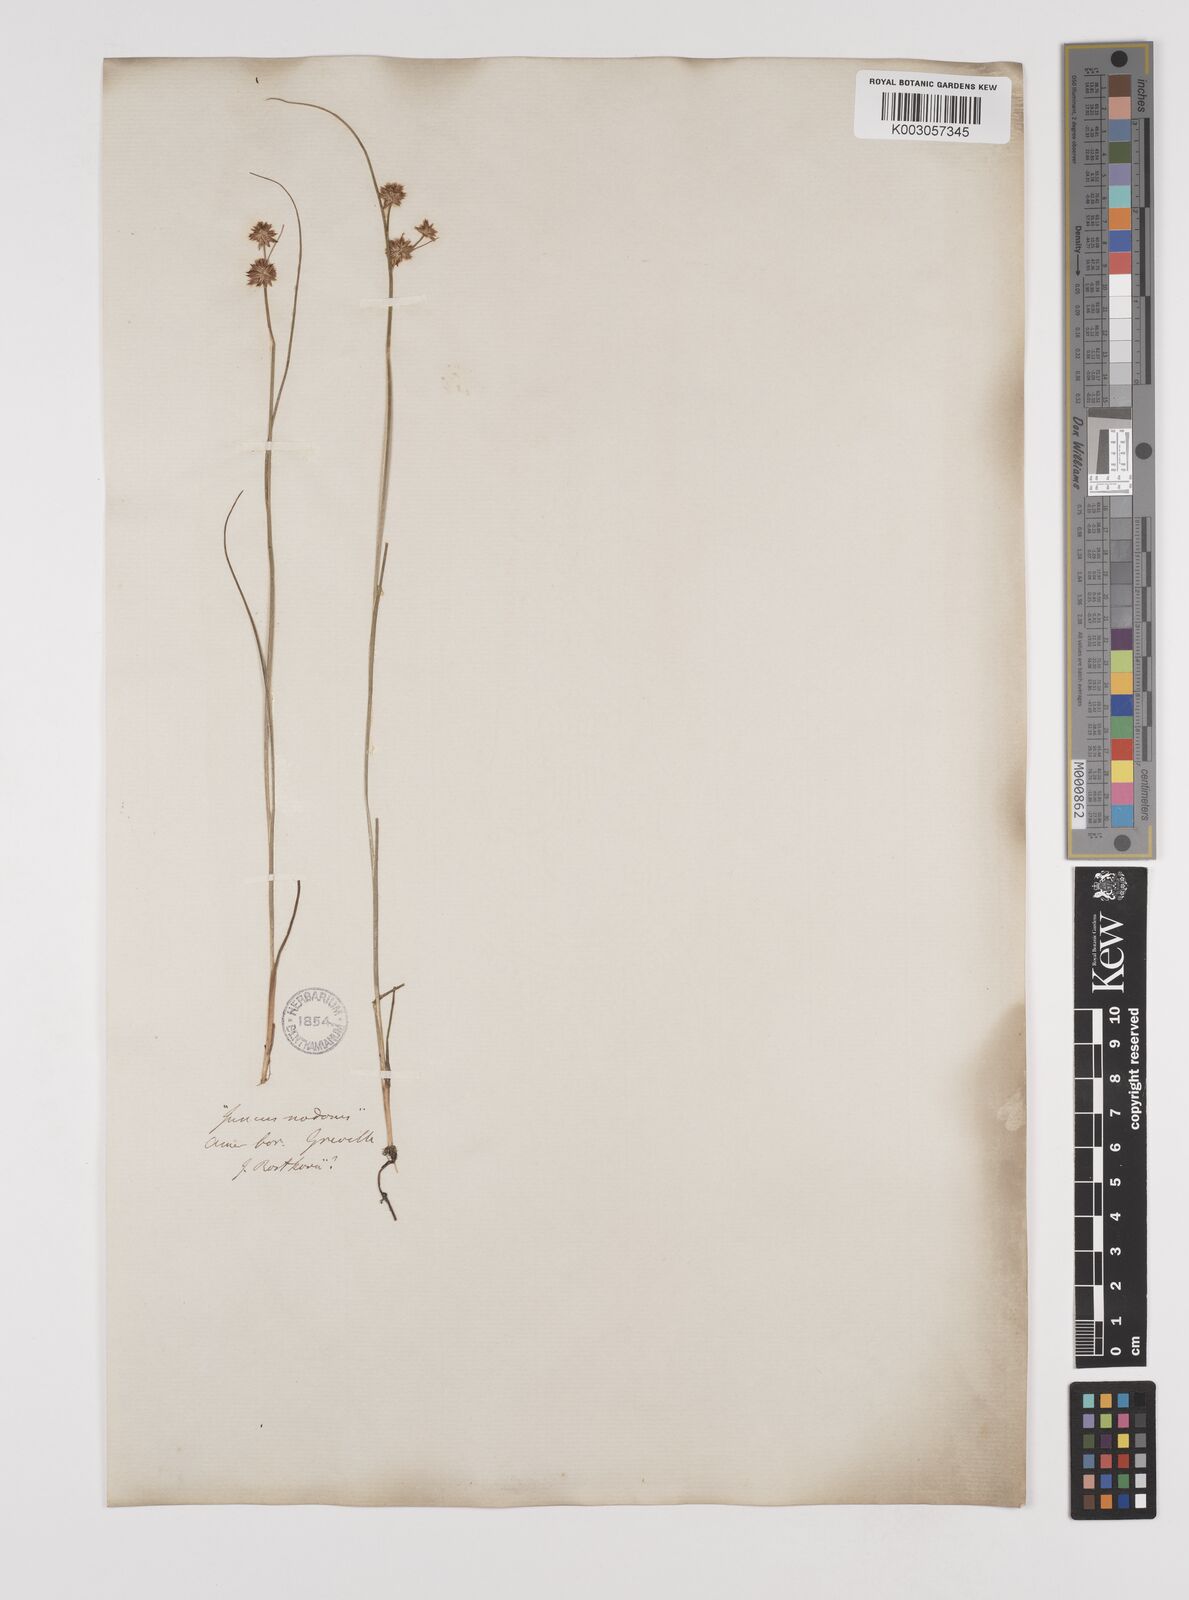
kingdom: Plantae
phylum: Tracheophyta
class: Liliopsida
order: Poales
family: Juncaceae
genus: Juncus
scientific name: Juncus nodosus
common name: Knotted rush
